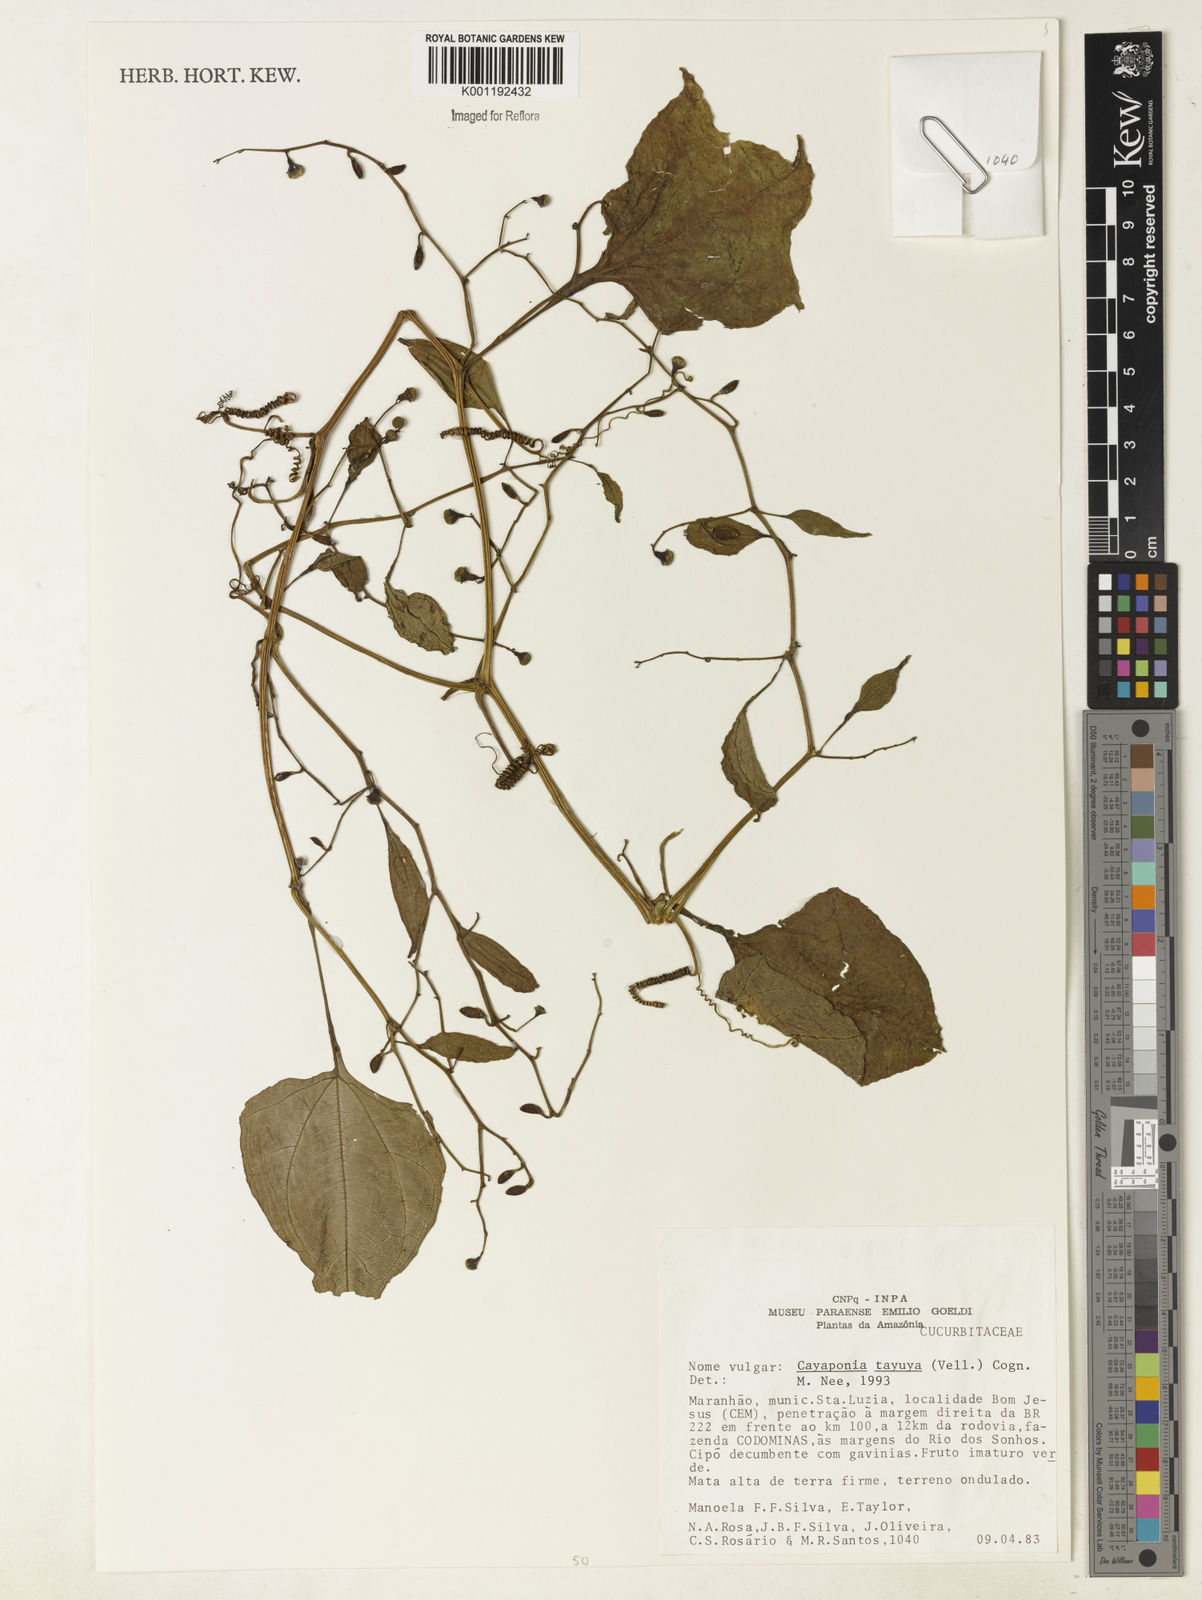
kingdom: Plantae
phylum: Tracheophyta
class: Magnoliopsida
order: Cucurbitales
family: Cucurbitaceae
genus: Cayaponia
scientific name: Cayaponia tayuya
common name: Tayuya
